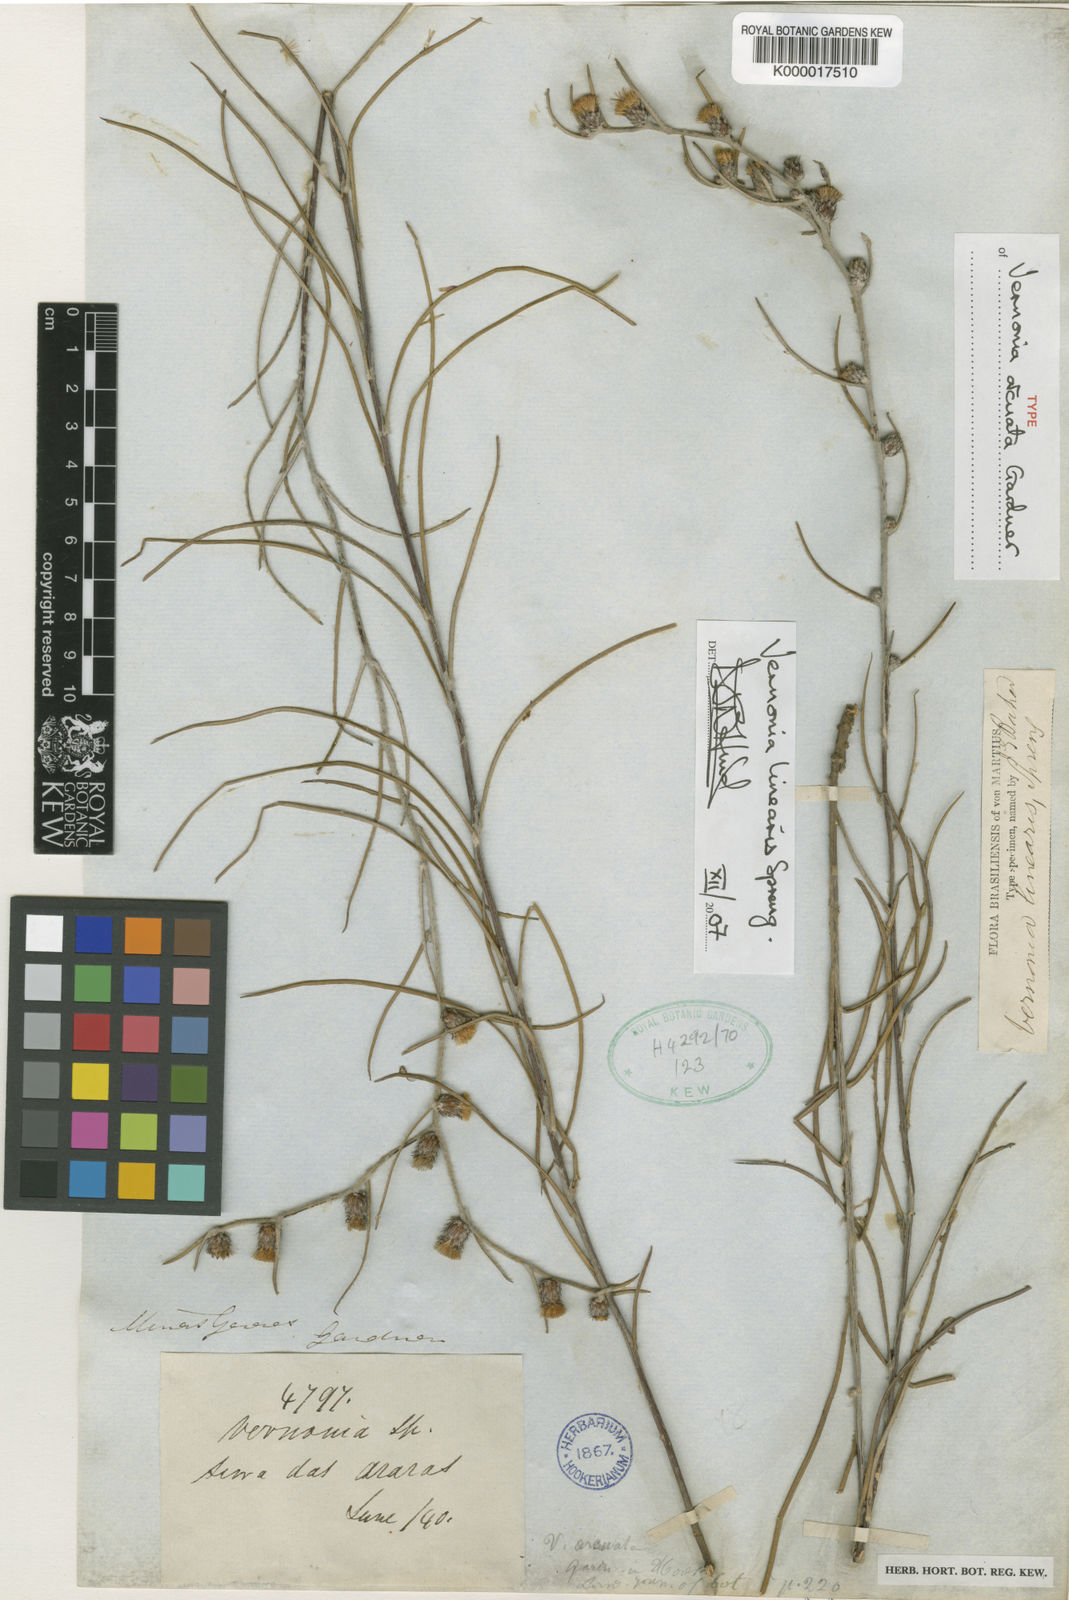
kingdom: Plantae
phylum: Tracheophyta
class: Magnoliopsida
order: Asterales
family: Asteraceae
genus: Lessingianthus
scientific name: Lessingianthus linearis
